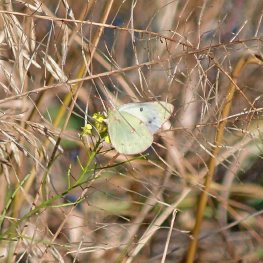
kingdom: Animalia
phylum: Arthropoda
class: Insecta
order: Lepidoptera
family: Pieridae
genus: Colias
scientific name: Colias eurytheme
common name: Orange Sulphur
